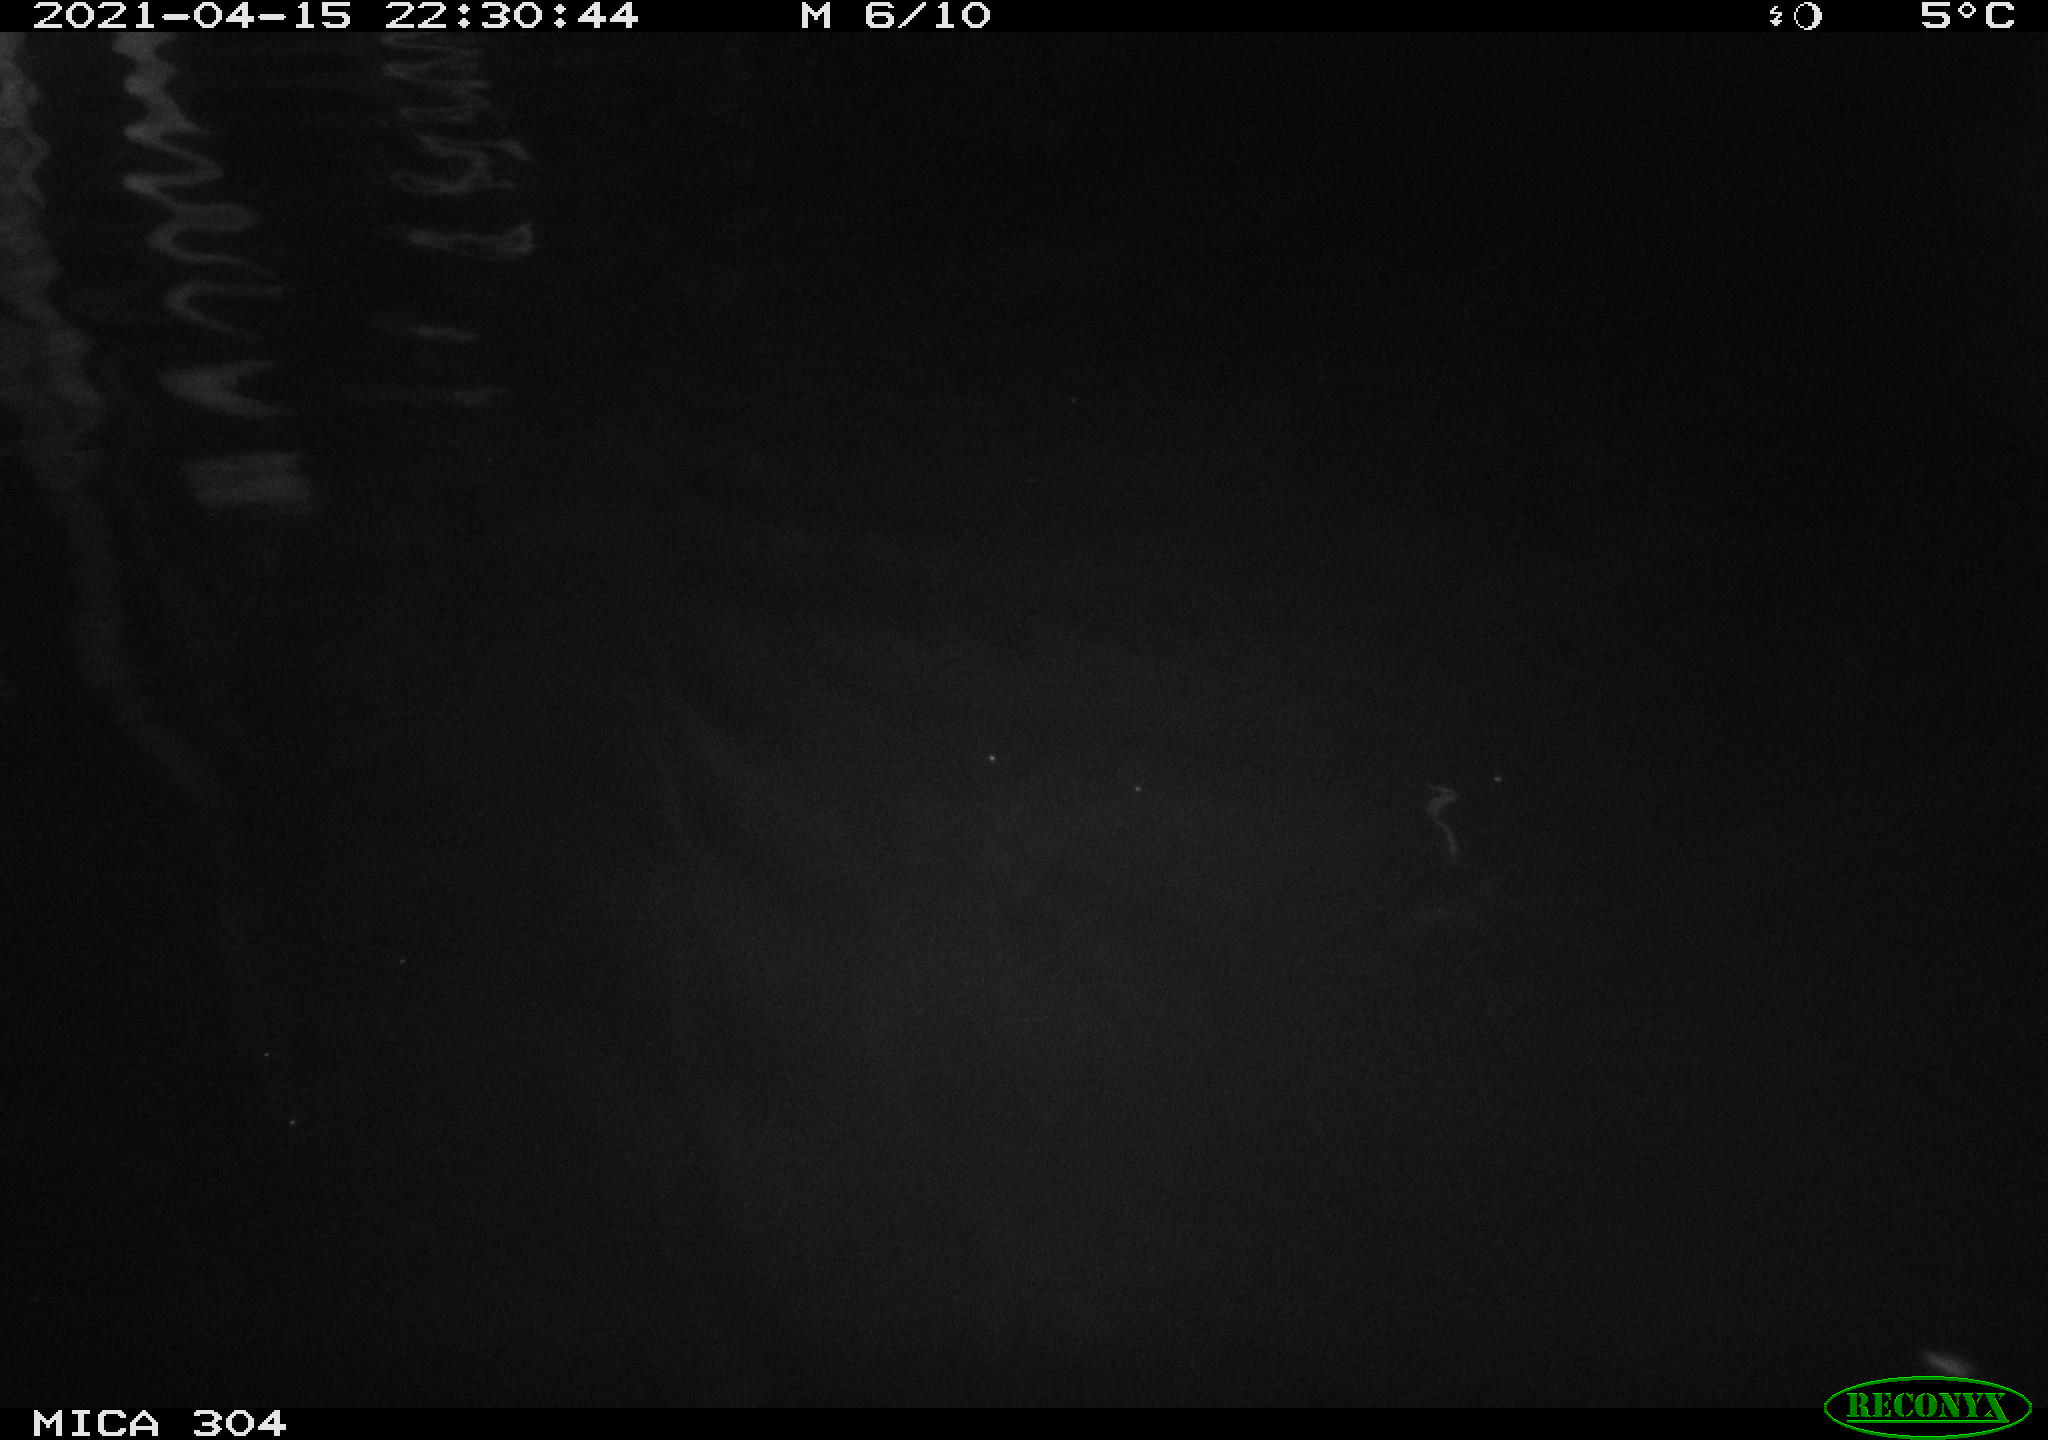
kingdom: Animalia
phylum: Chordata
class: Aves
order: Anseriformes
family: Anatidae
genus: Anas
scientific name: Anas platyrhynchos
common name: Mallard
